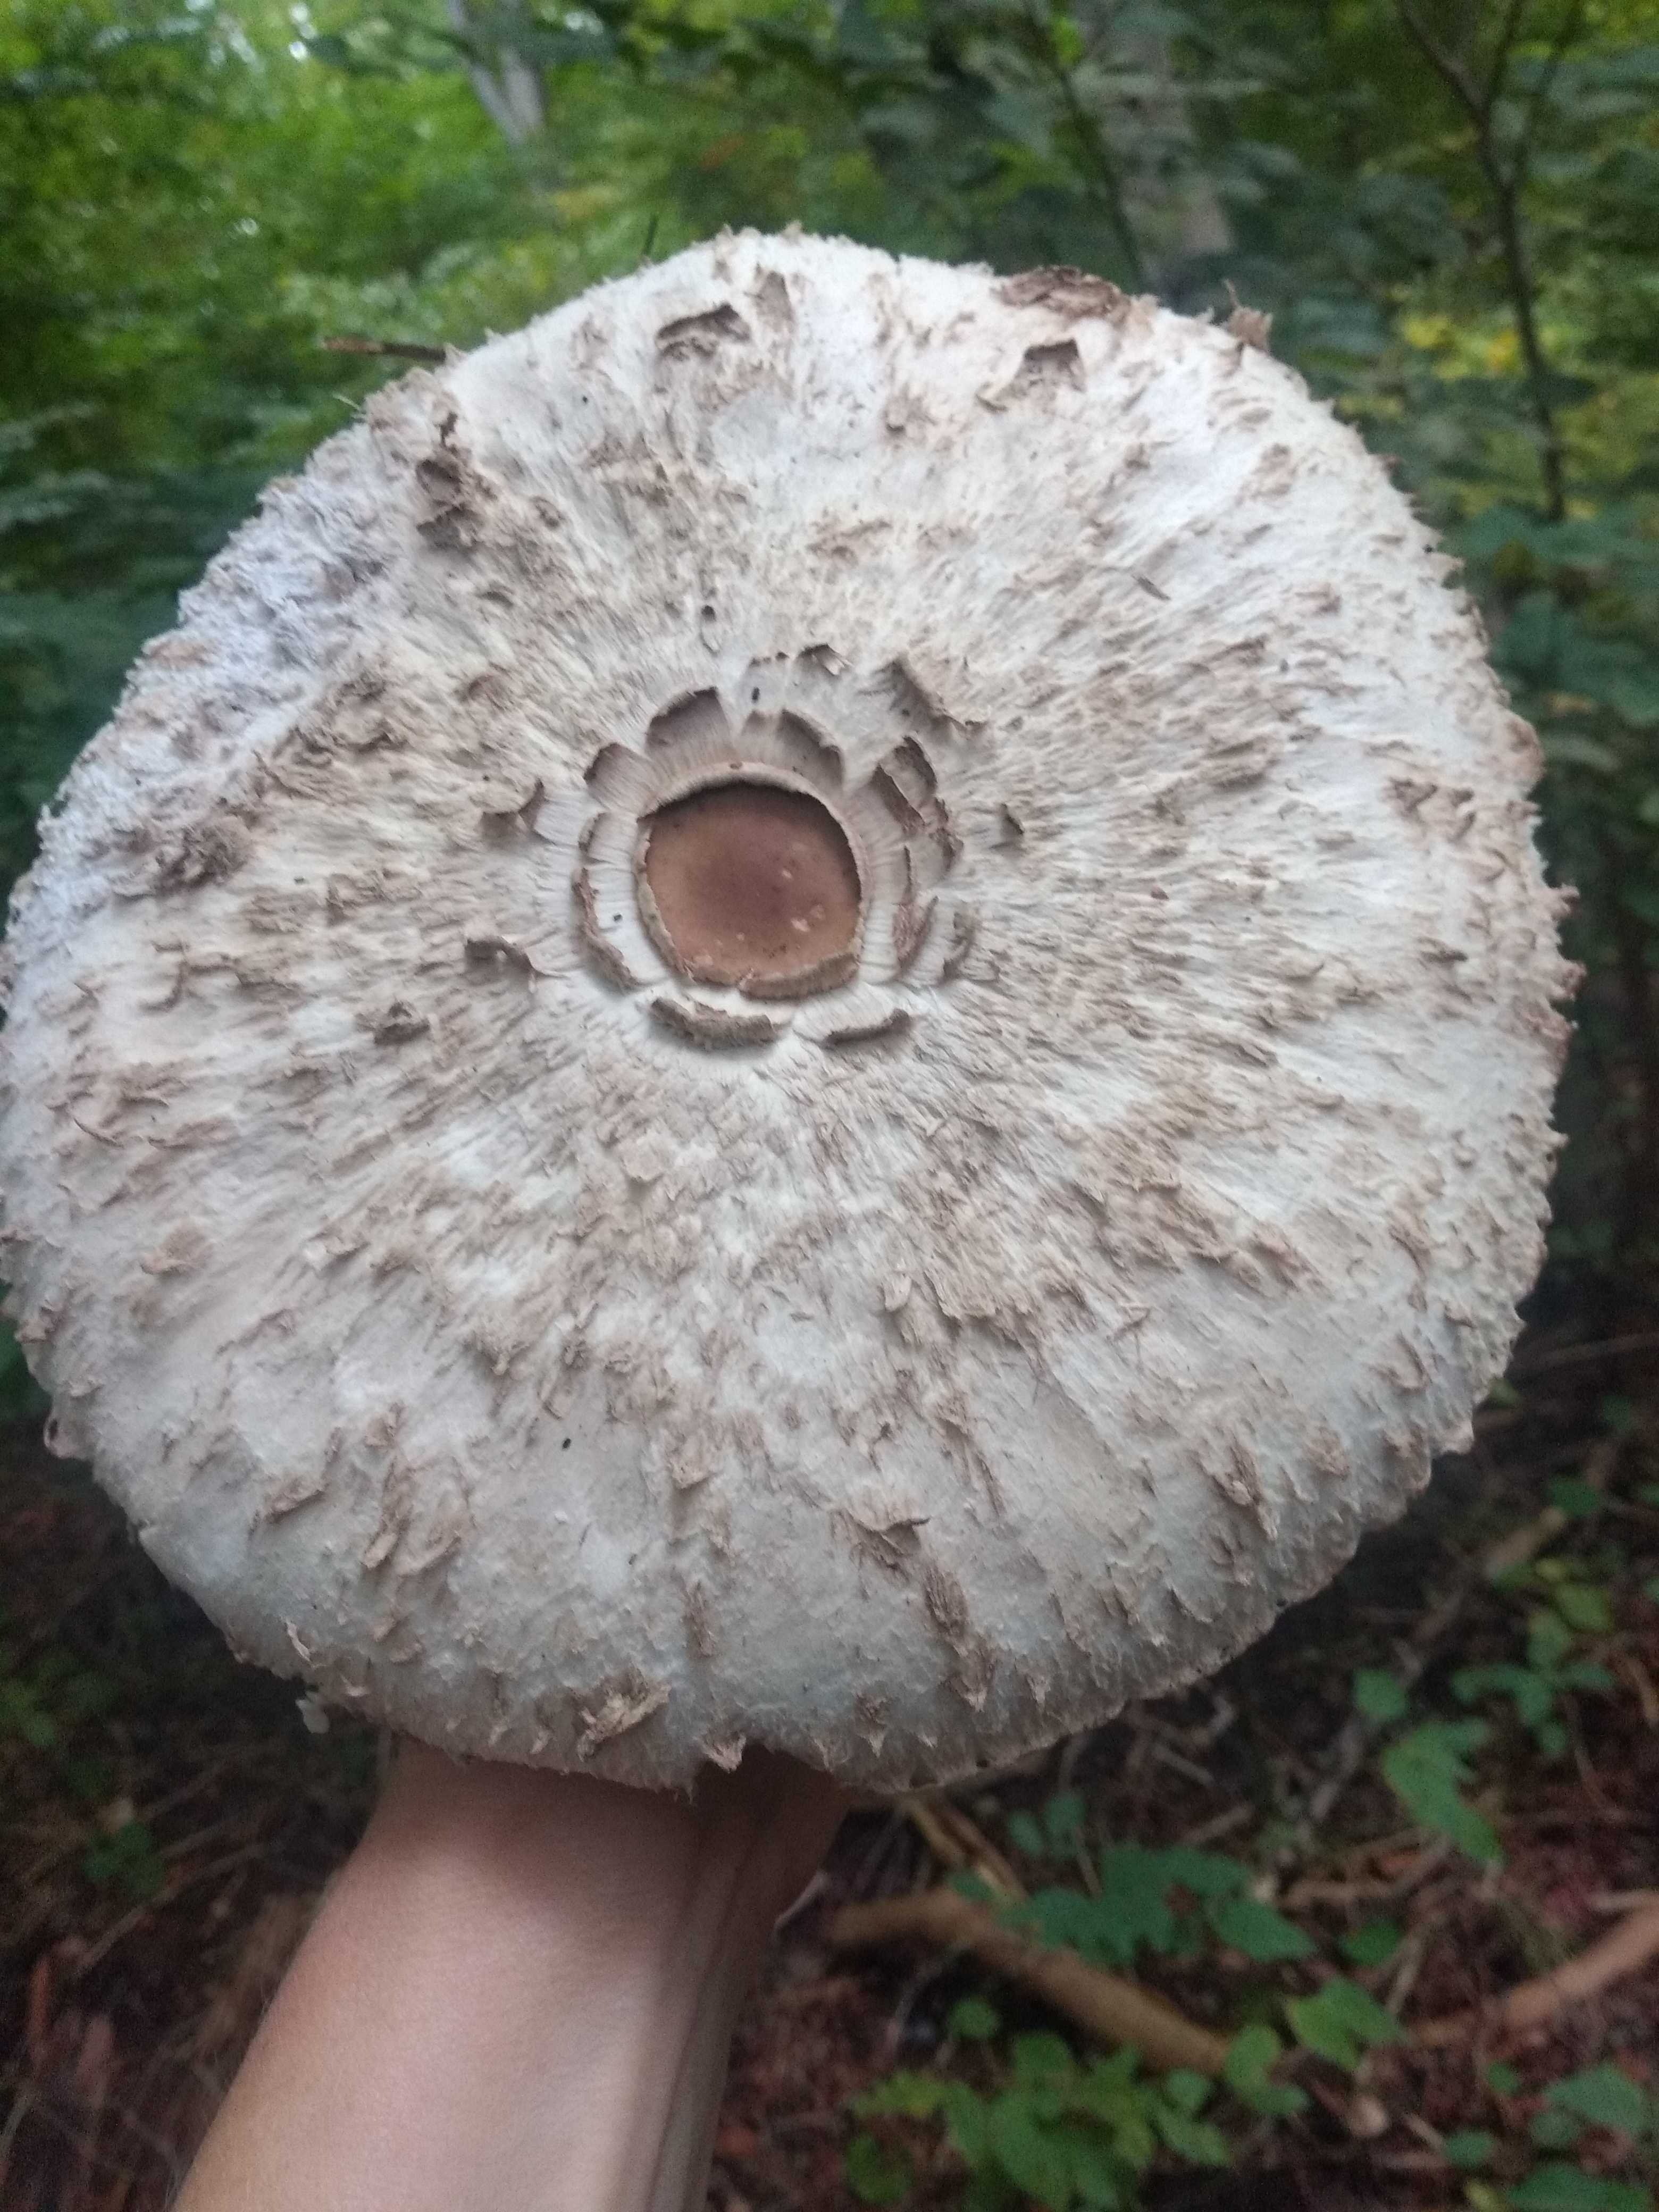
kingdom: Fungi
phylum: Basidiomycota
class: Agaricomycetes
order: Agaricales
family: Agaricaceae
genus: Chlorophyllum
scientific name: Chlorophyllum olivieri
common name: almindelig rabarberhat
